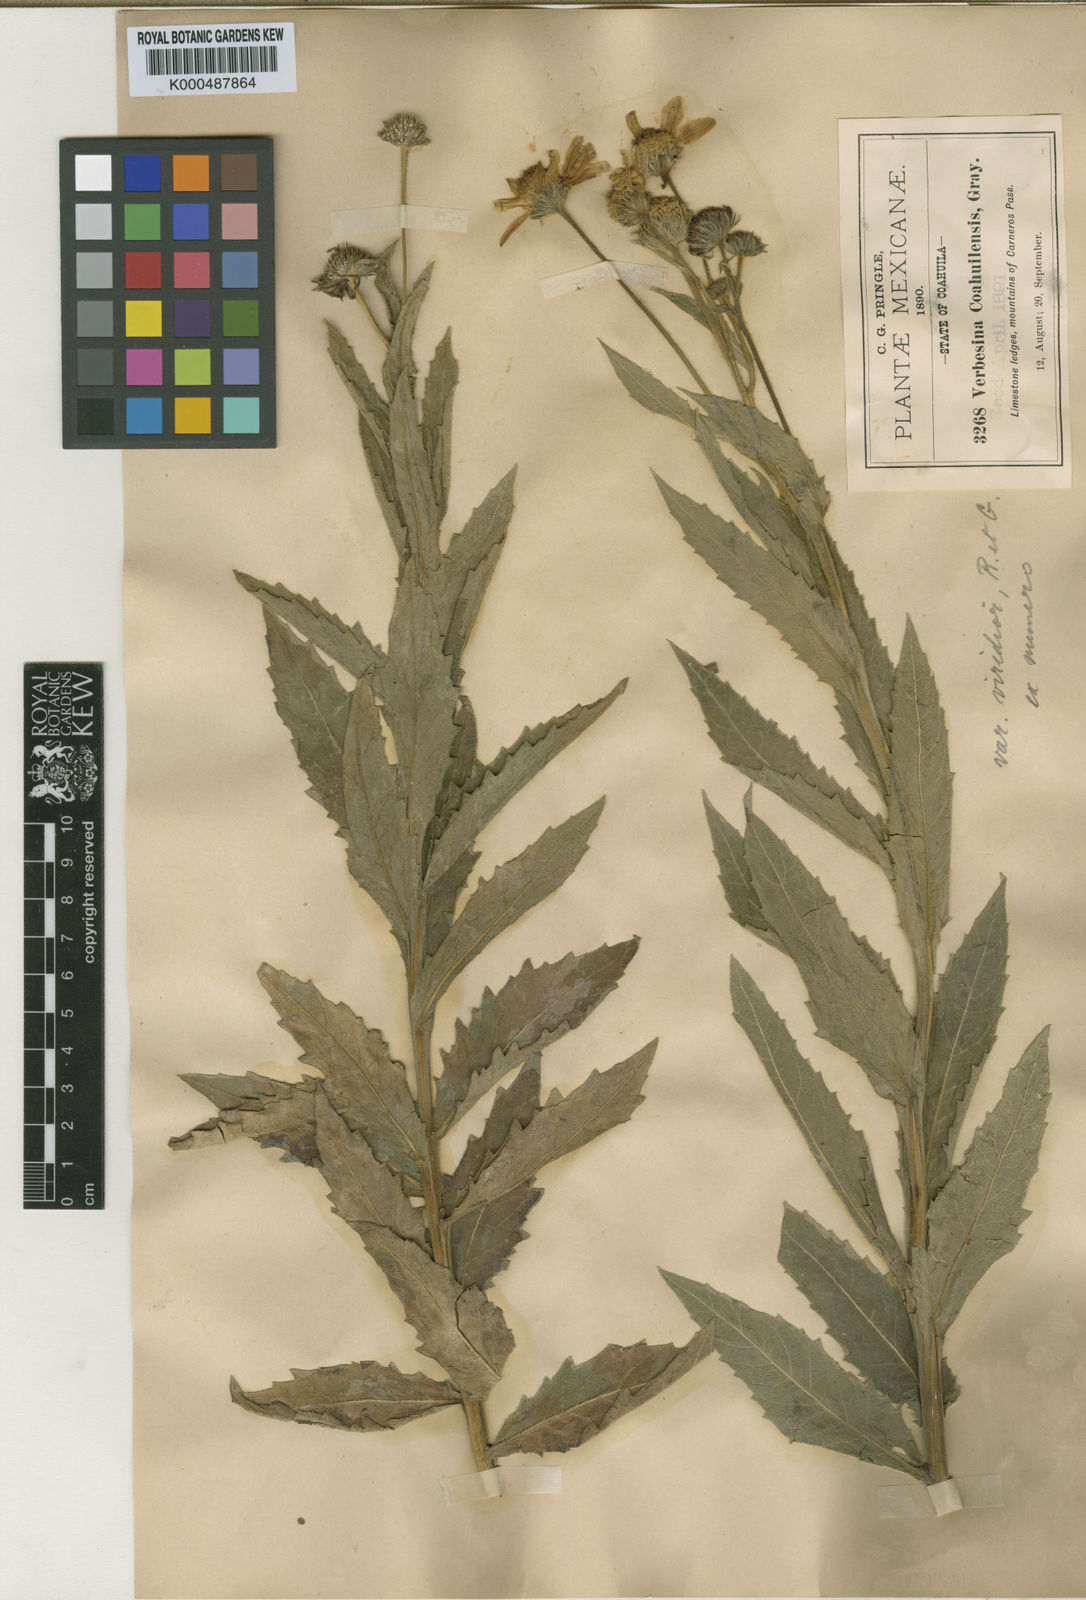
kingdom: Plantae
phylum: Tracheophyta
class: Magnoliopsida
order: Asterales
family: Asteraceae
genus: Verbesina
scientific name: Verbesina coahuilensis
